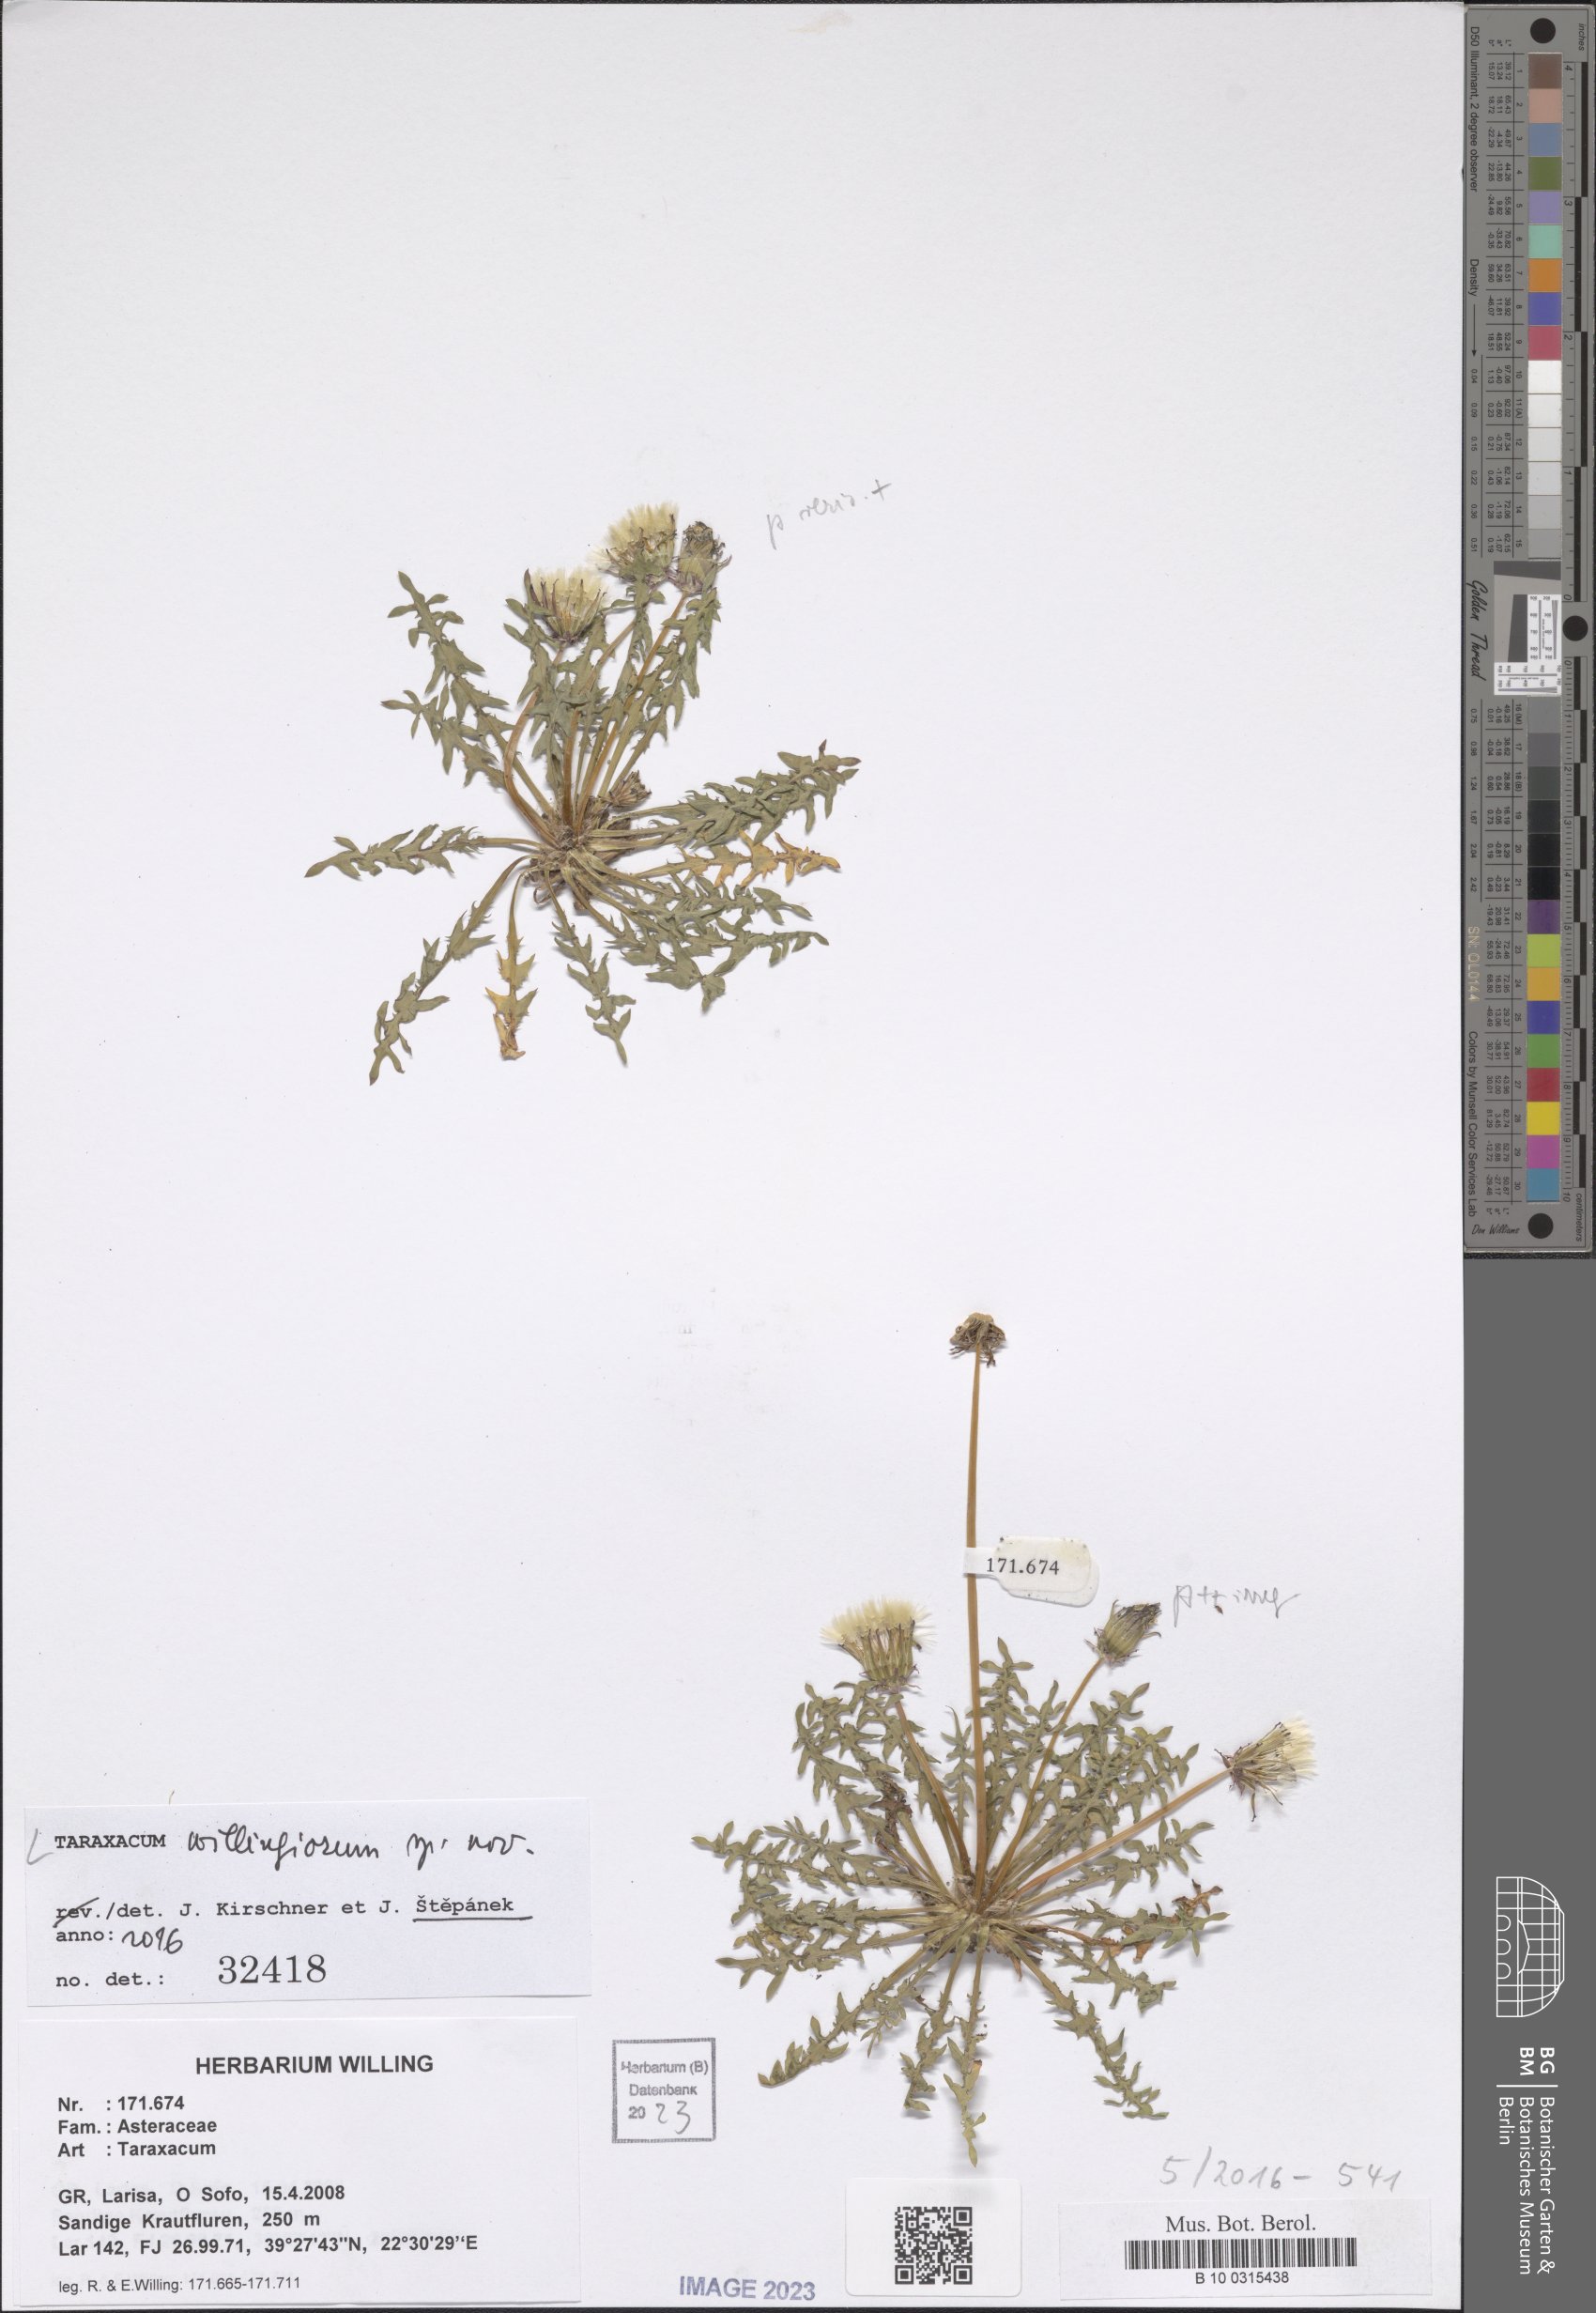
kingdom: Plantae
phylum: Tracheophyta
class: Magnoliopsida
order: Asterales
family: Asteraceae
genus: Taraxacum
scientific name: Taraxacum
